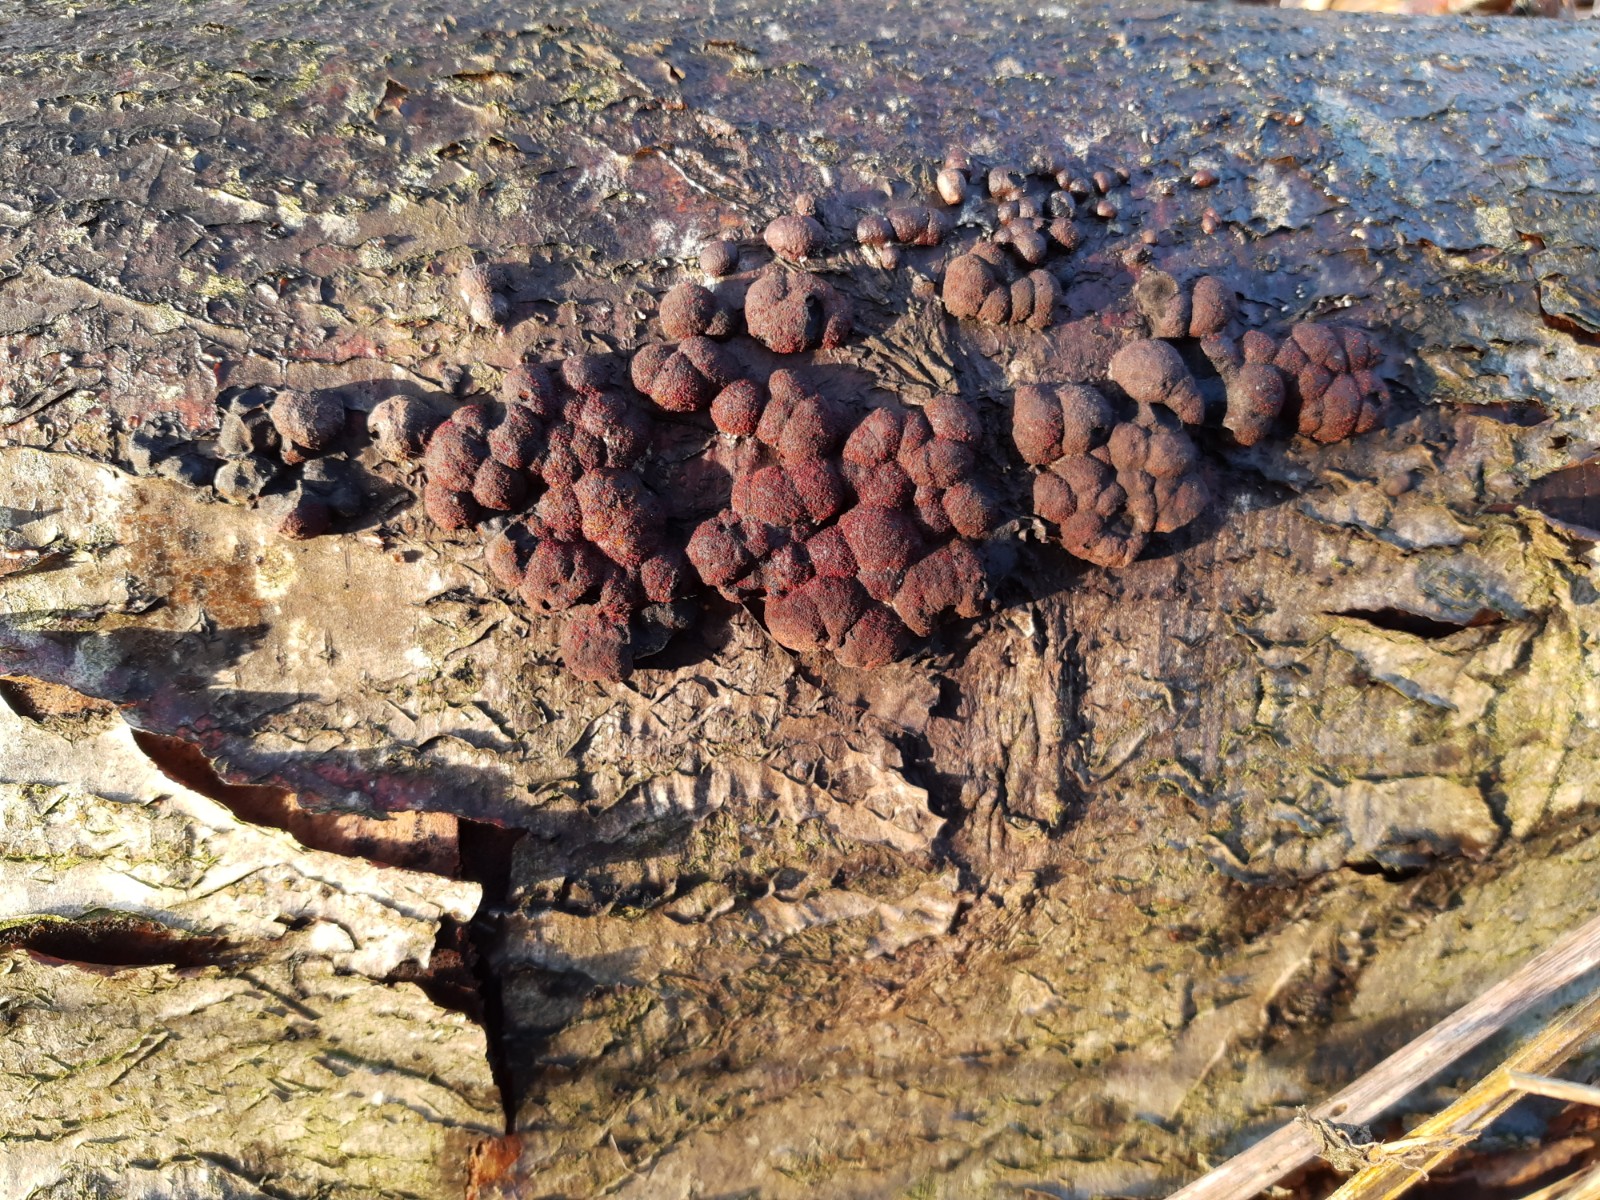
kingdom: Fungi
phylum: Ascomycota
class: Sordariomycetes
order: Xylariales
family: Hypoxylaceae
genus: Hypoxylon
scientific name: Hypoxylon fragiforme
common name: kuljordbær
